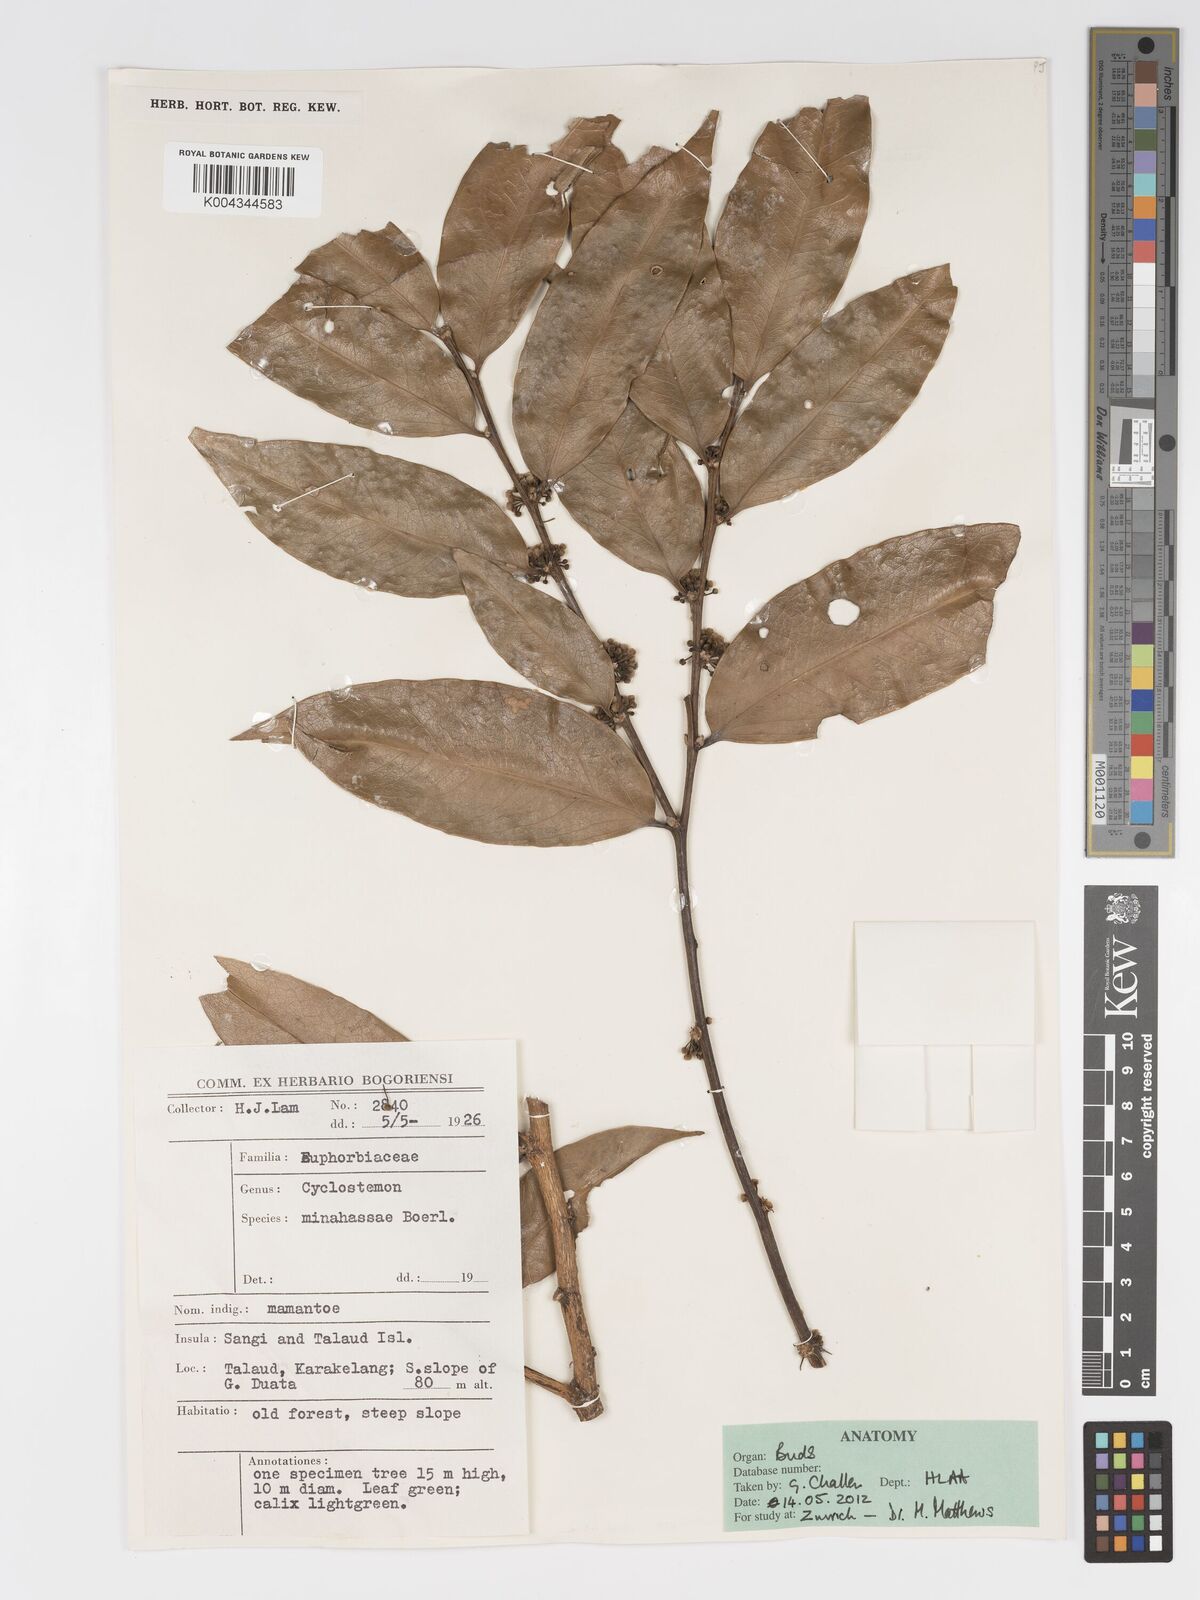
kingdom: Plantae
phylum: Tracheophyta
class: Magnoliopsida
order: Malpighiales
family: Putranjivaceae
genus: Drypetes
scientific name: Drypetes minahassae
